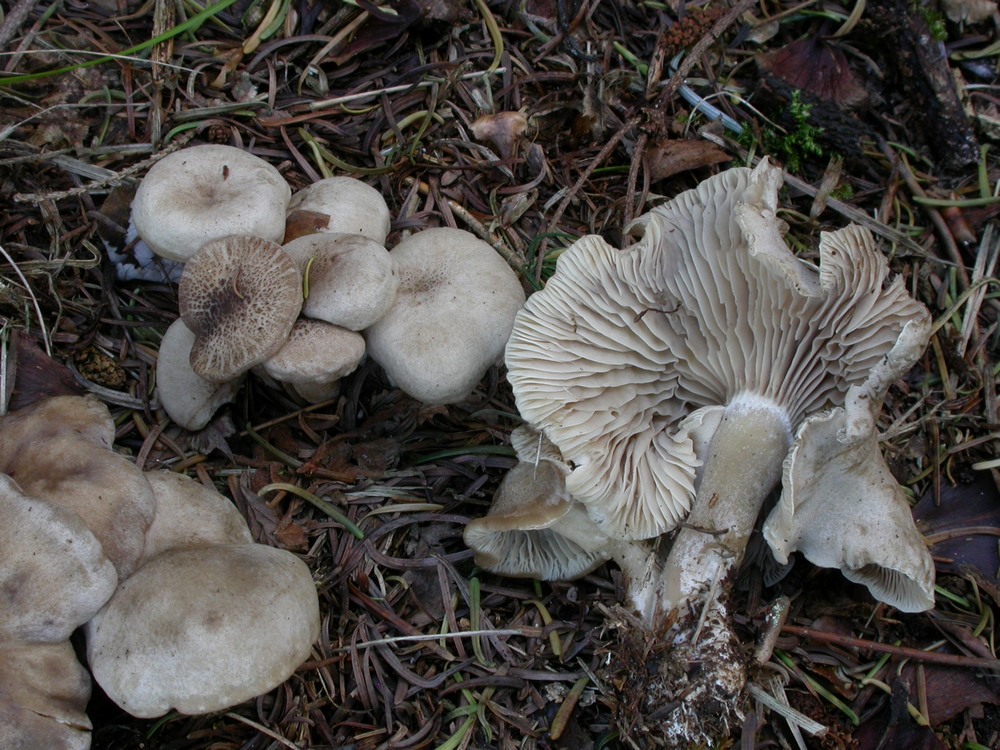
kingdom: Fungi
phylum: Basidiomycota
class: Agaricomycetes
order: Agaricales
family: Pseudoclitocybaceae
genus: Musumecia
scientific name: Musumecia bettlachensis
